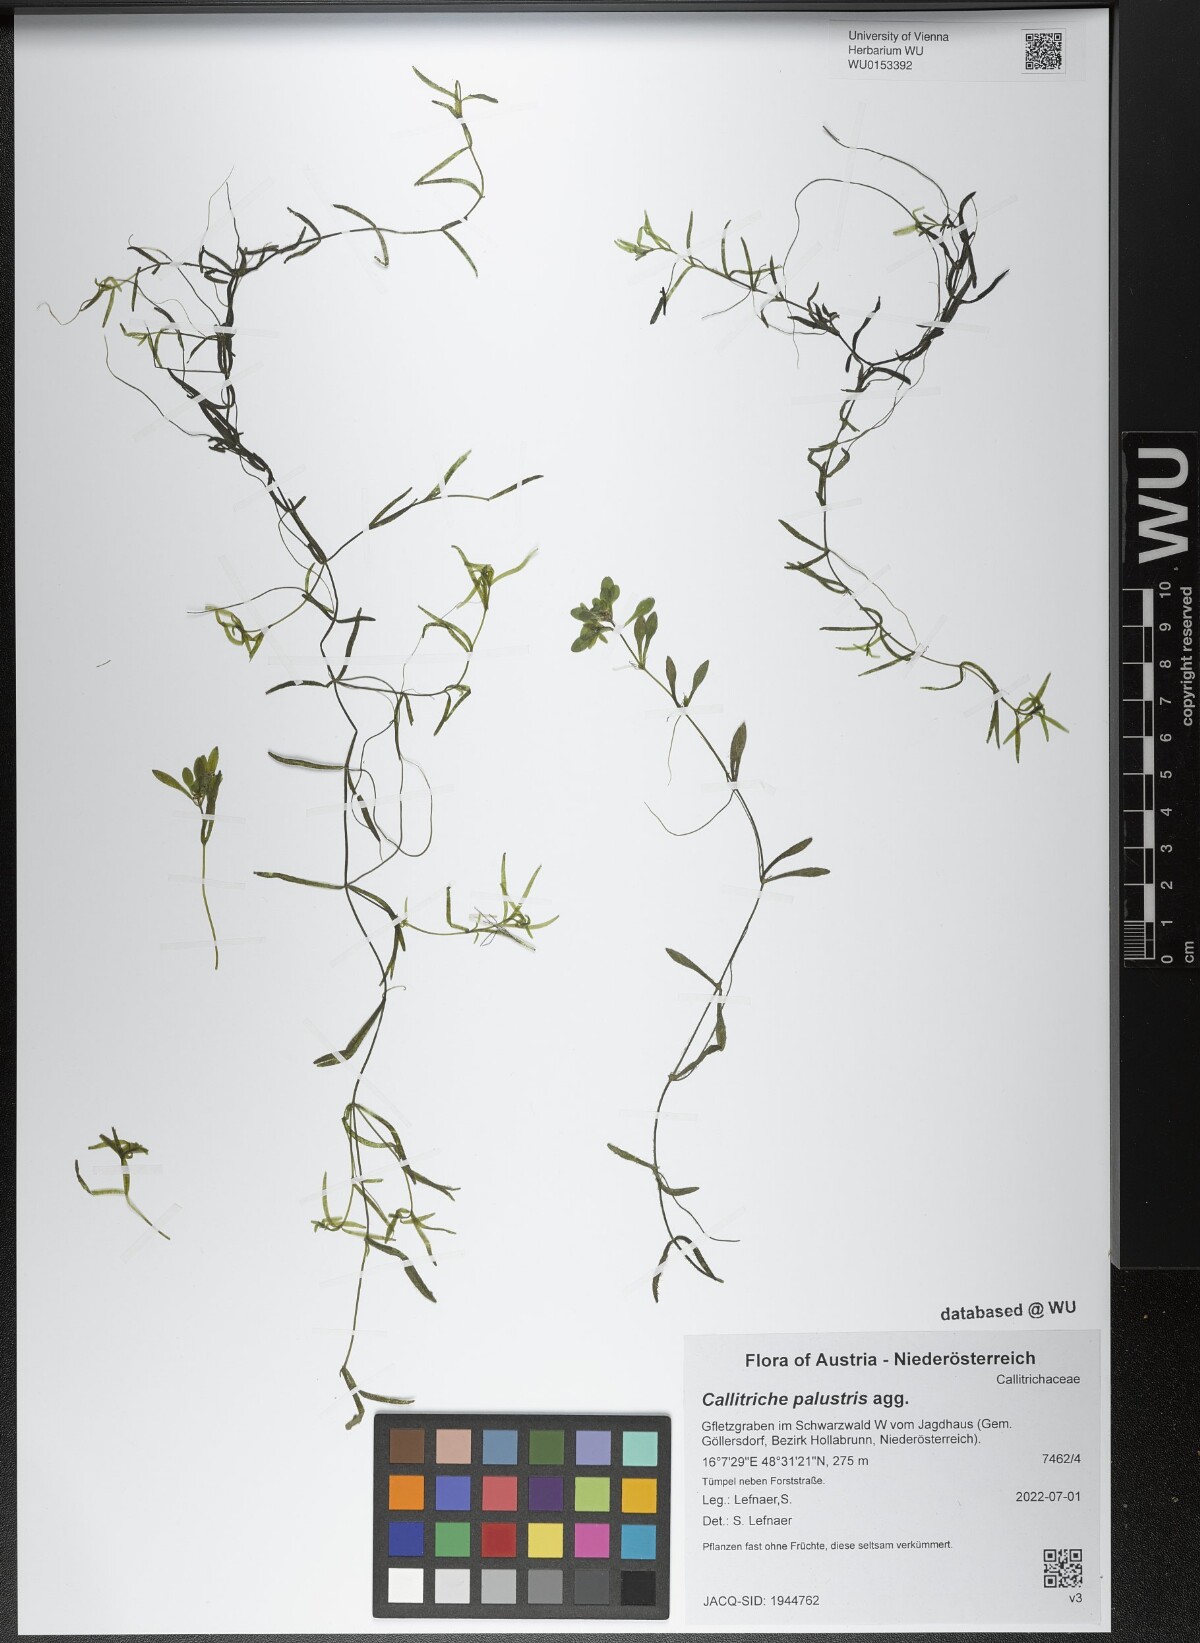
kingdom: Plantae
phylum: Tracheophyta
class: Magnoliopsida
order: Lamiales
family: Plantaginaceae
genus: Callitriche
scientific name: Callitriche palustris
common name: Spring water-starwort
